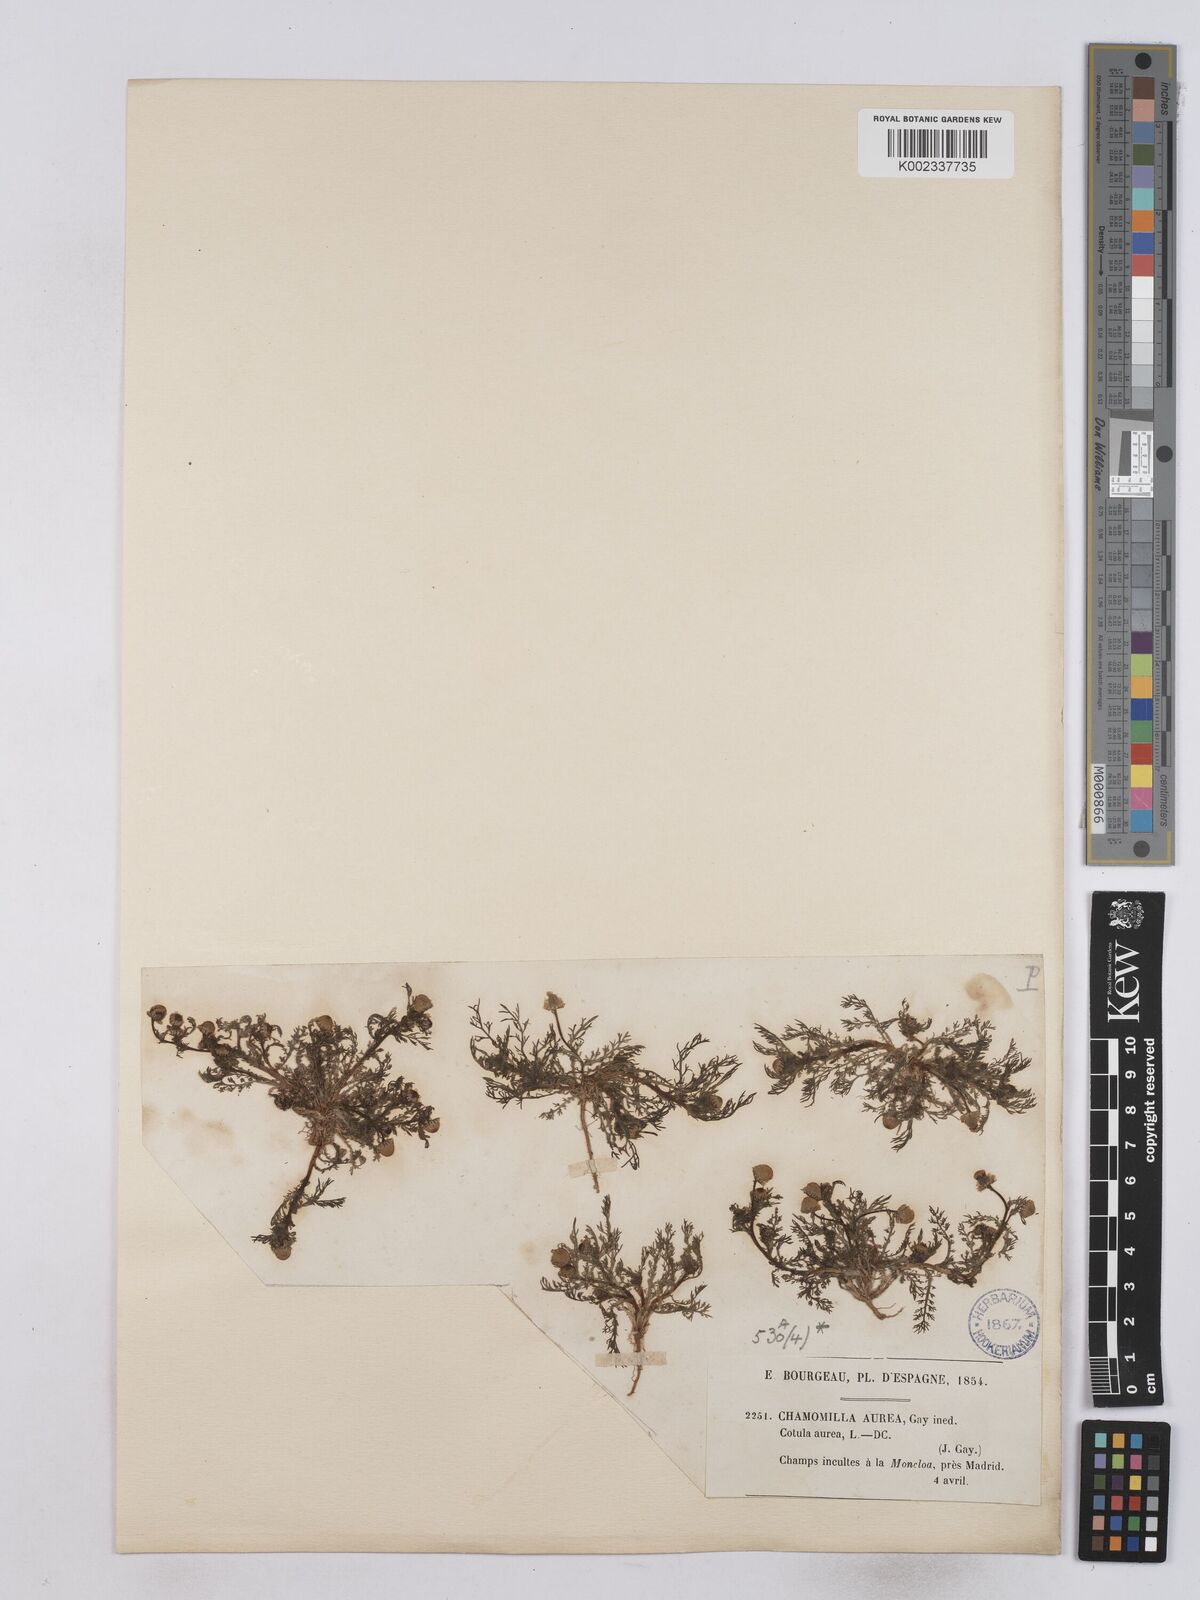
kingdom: Plantae
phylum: Tracheophyta
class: Magnoliopsida
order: Asterales
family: Asteraceae
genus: Matricaria
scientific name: Matricaria aurea
